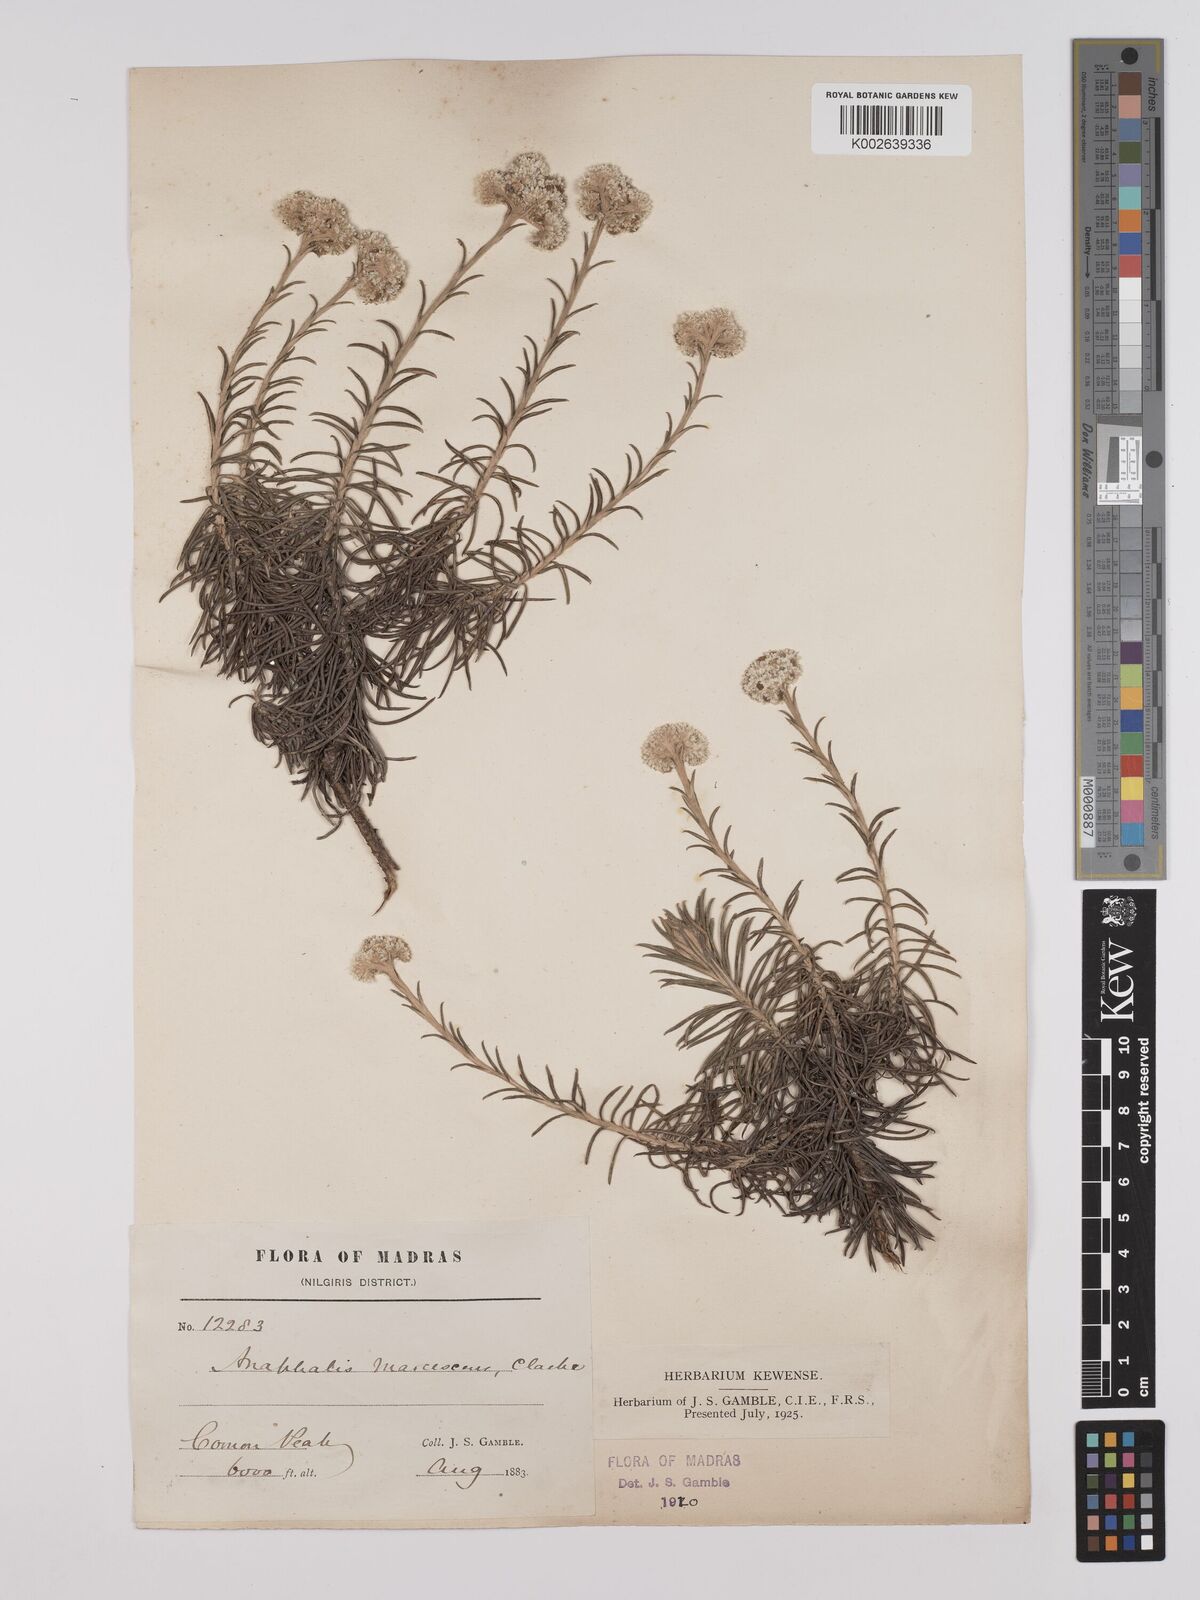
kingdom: Plantae
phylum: Tracheophyta
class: Magnoliopsida
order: Asterales
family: Asteraceae
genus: Anaphalis
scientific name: Anaphalis marcescens
